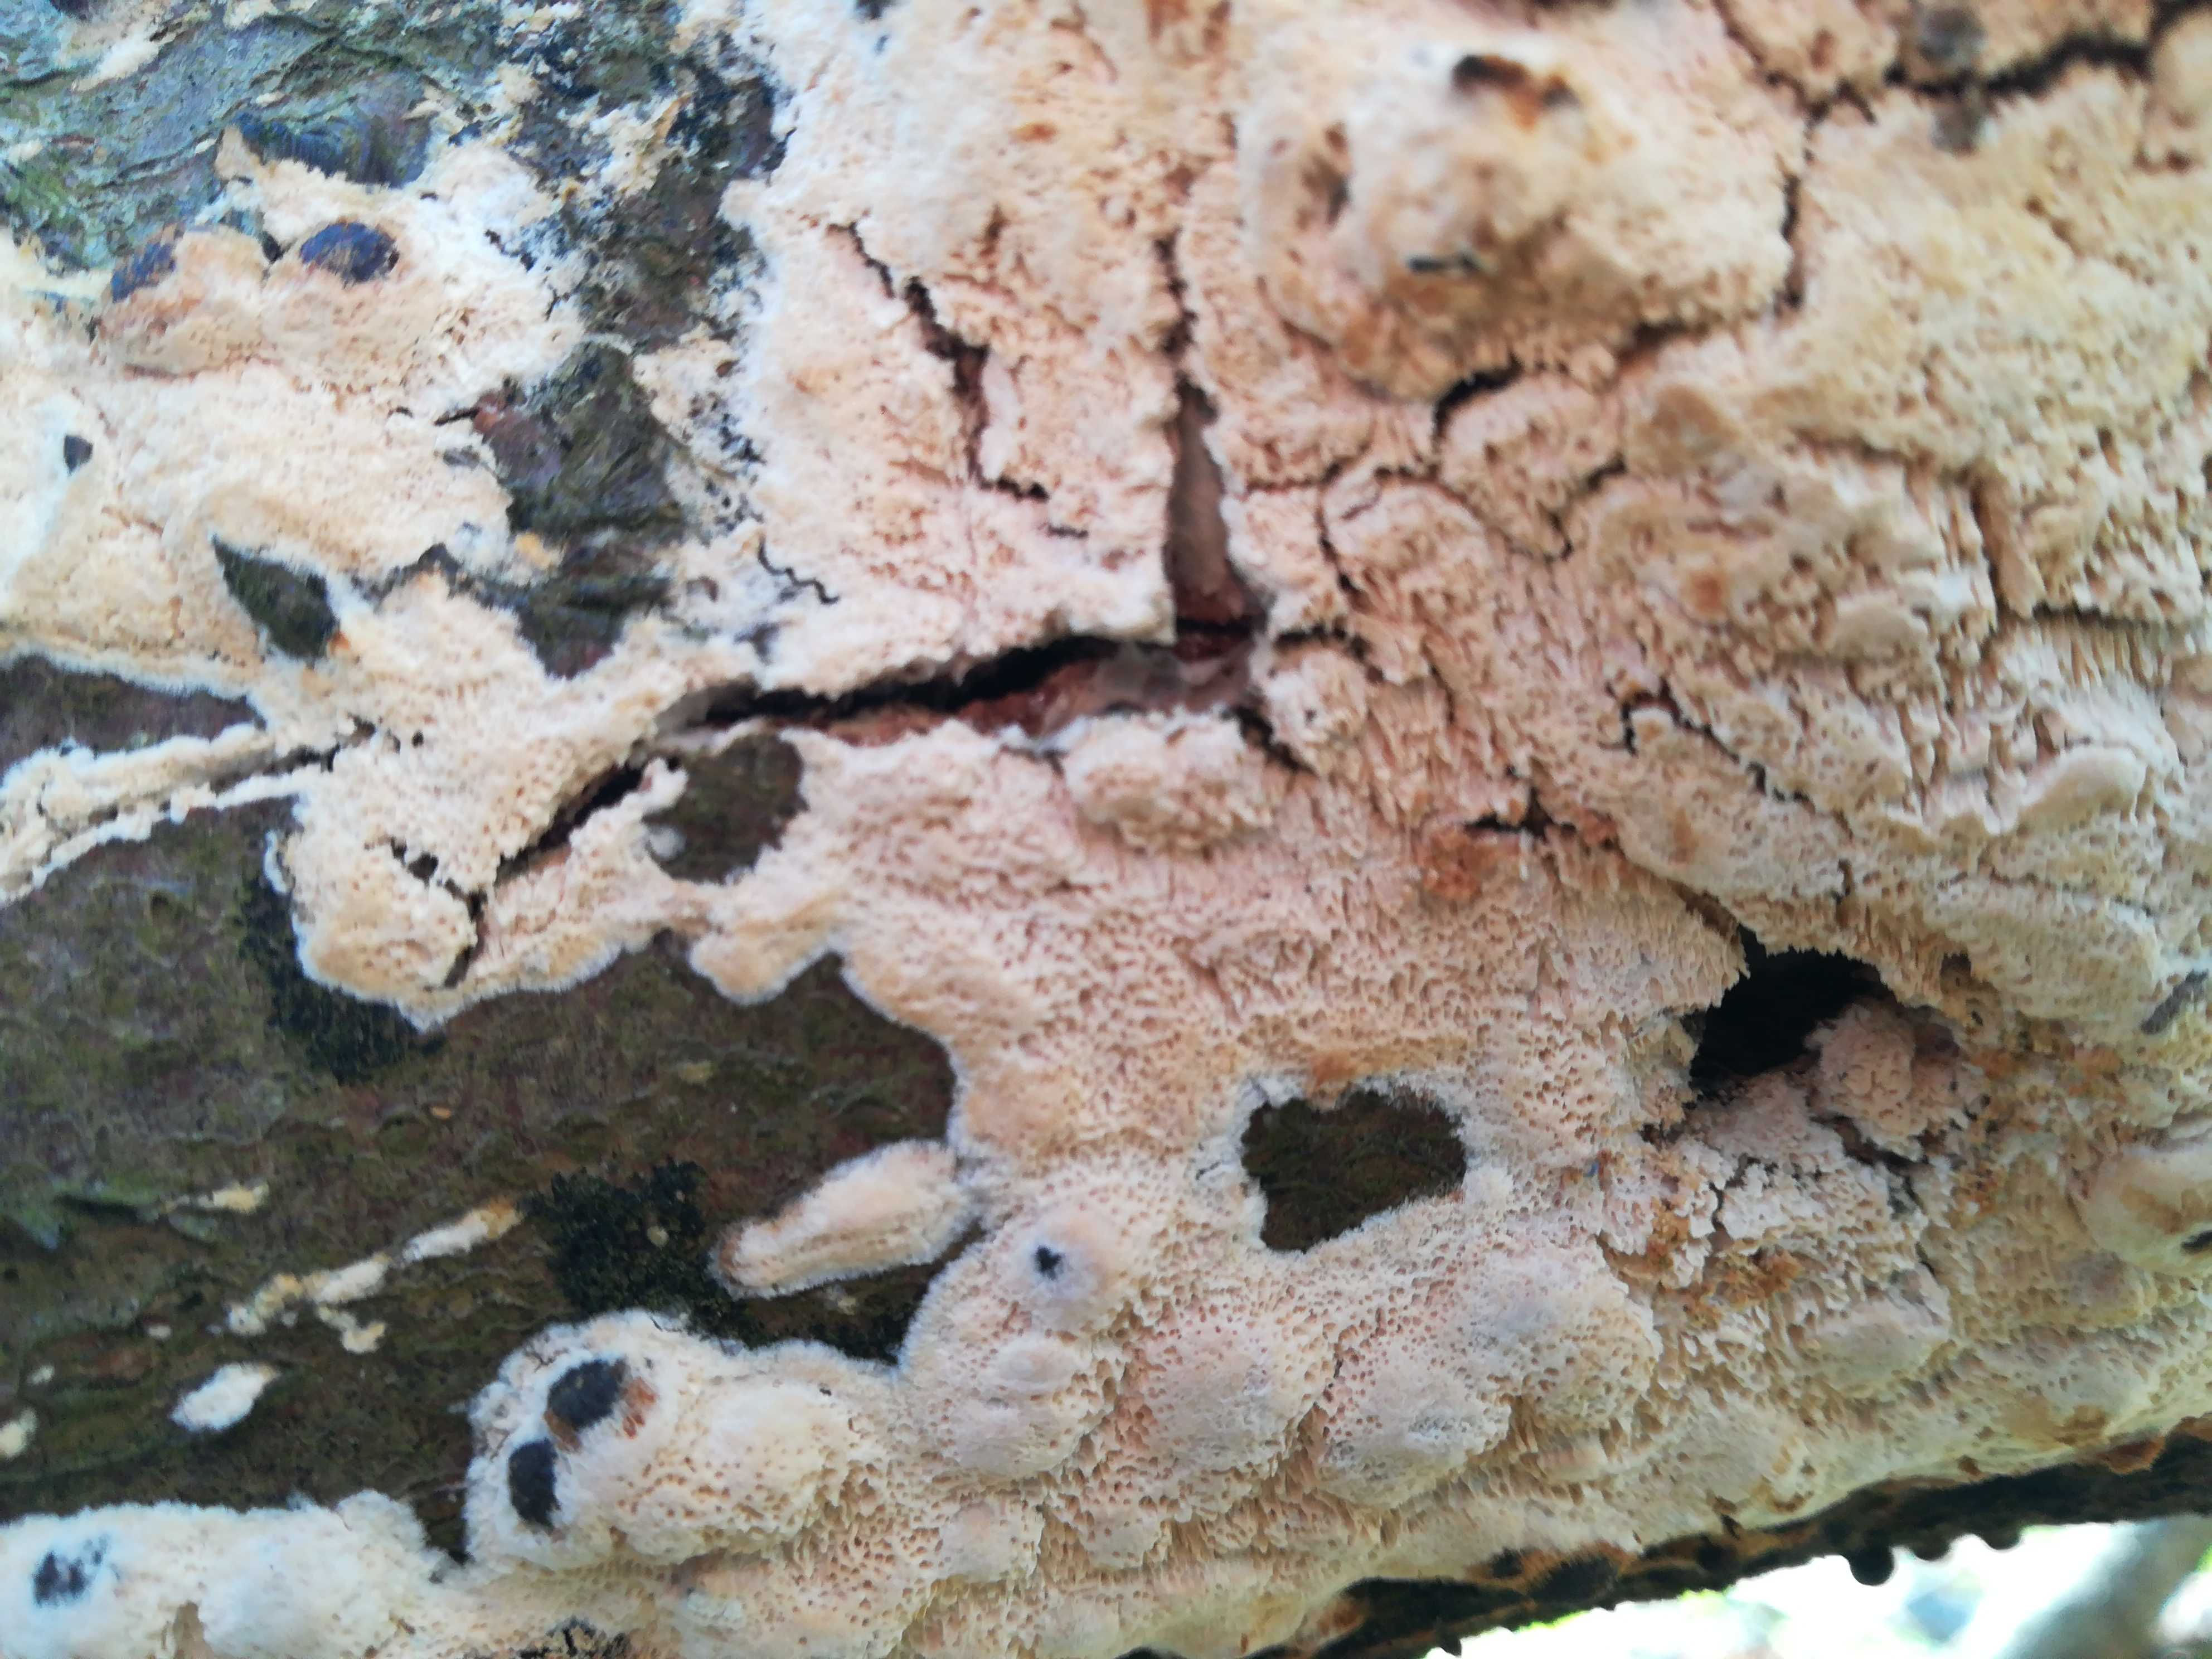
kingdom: Fungi
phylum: Basidiomycota
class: Agaricomycetes
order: Hymenochaetales
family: Schizoporaceae
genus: Xylodon
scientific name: Xylodon
